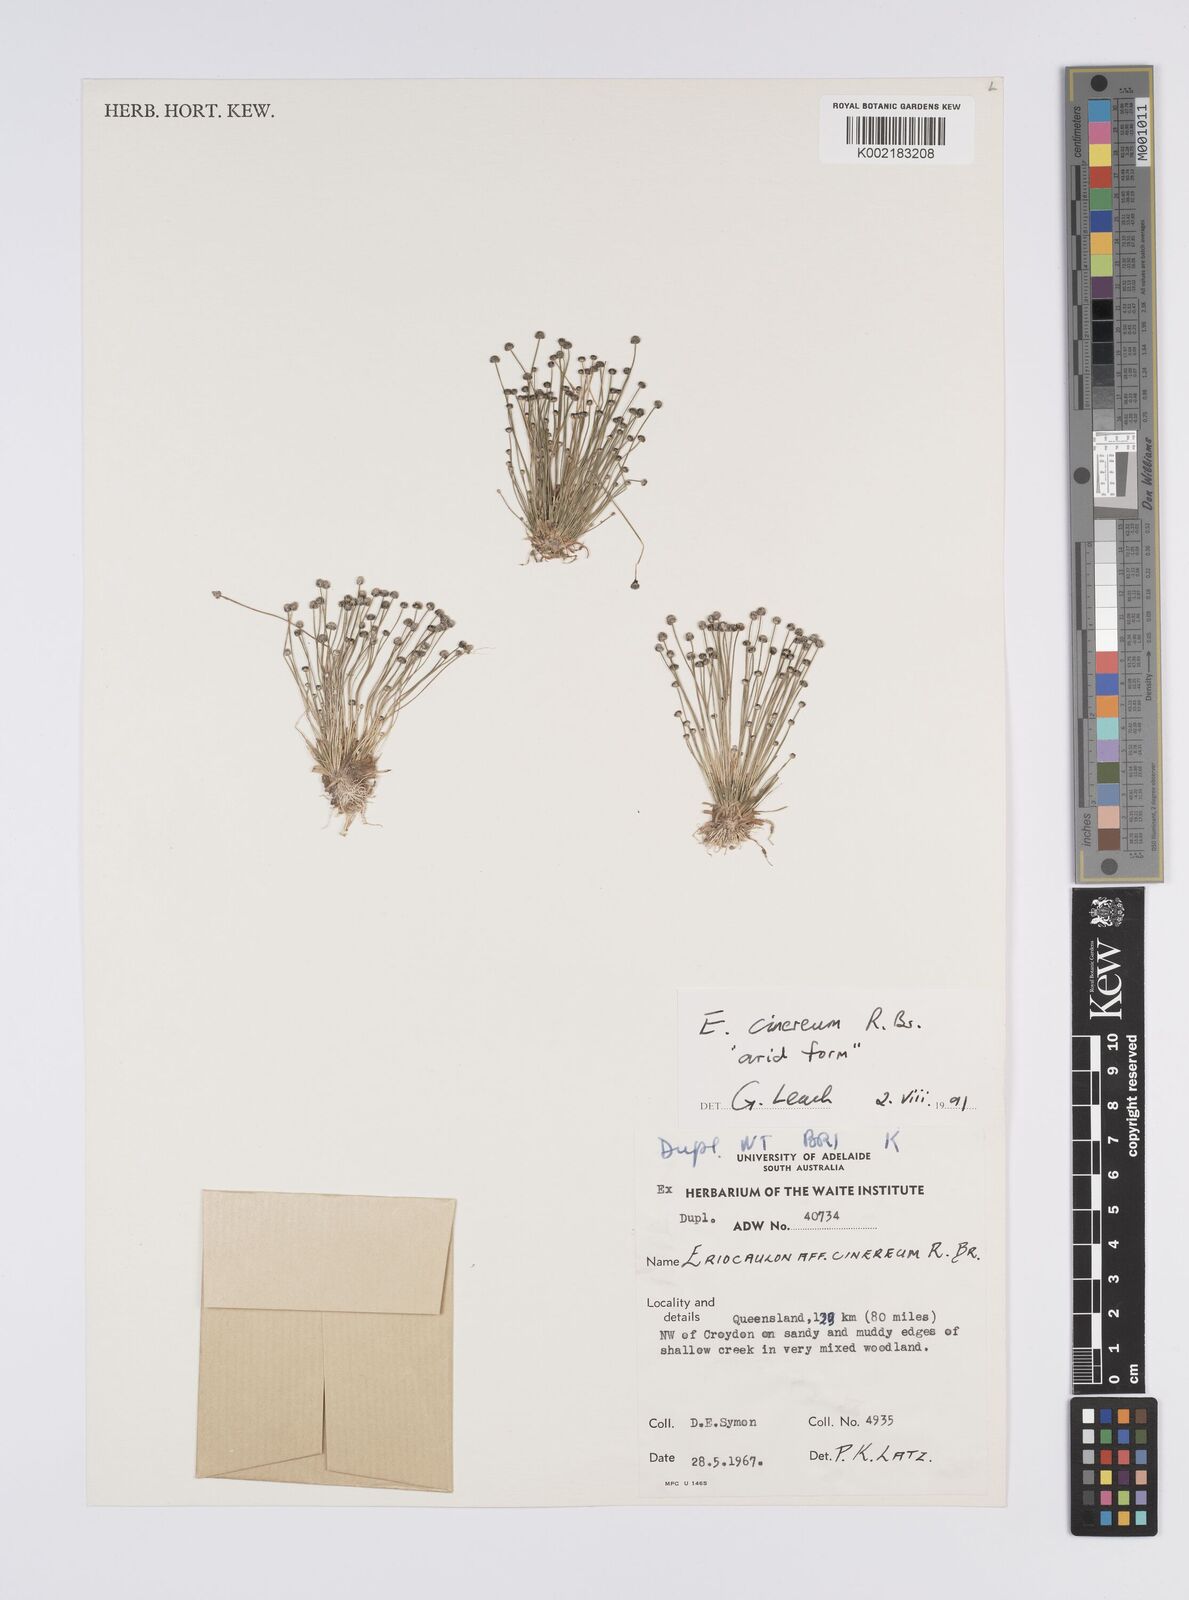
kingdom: Plantae
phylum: Tracheophyta
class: Liliopsida
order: Poales
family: Eriocaulaceae
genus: Eriocaulon
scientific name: Eriocaulon cinereum
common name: Ashy pipewort
